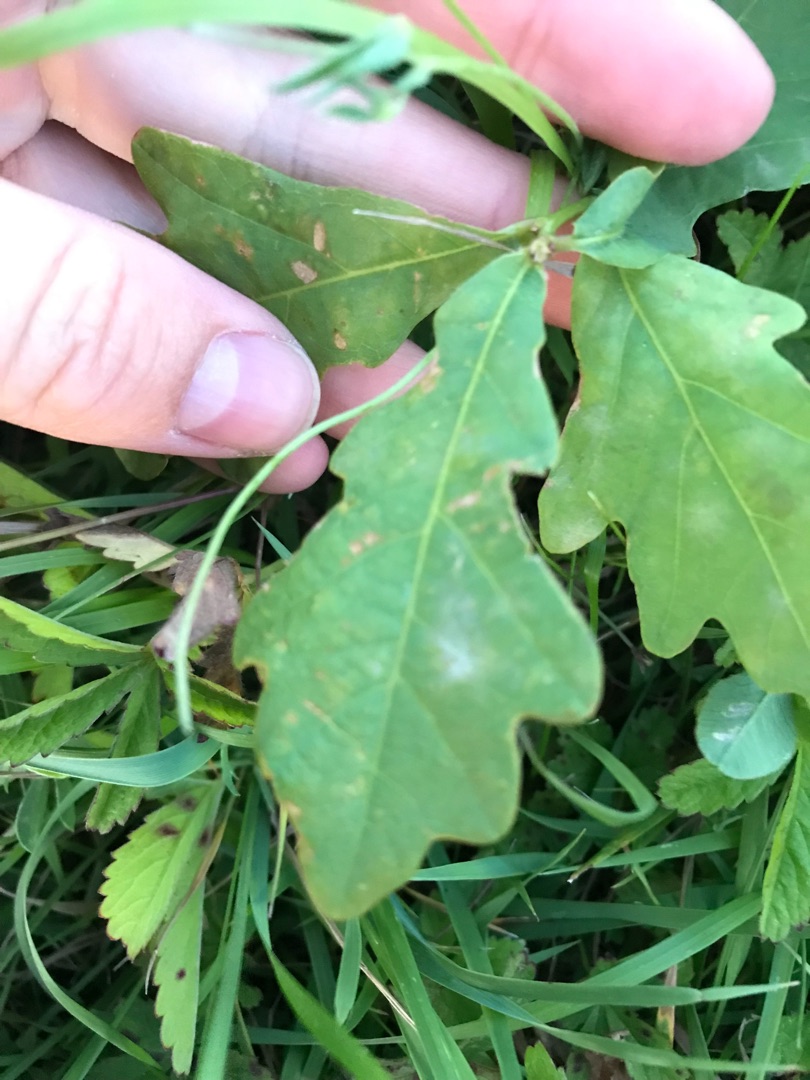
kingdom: Plantae
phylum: Tracheophyta
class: Magnoliopsida
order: Fagales
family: Fagaceae
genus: Quercus
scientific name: Quercus
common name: Egeslægten
